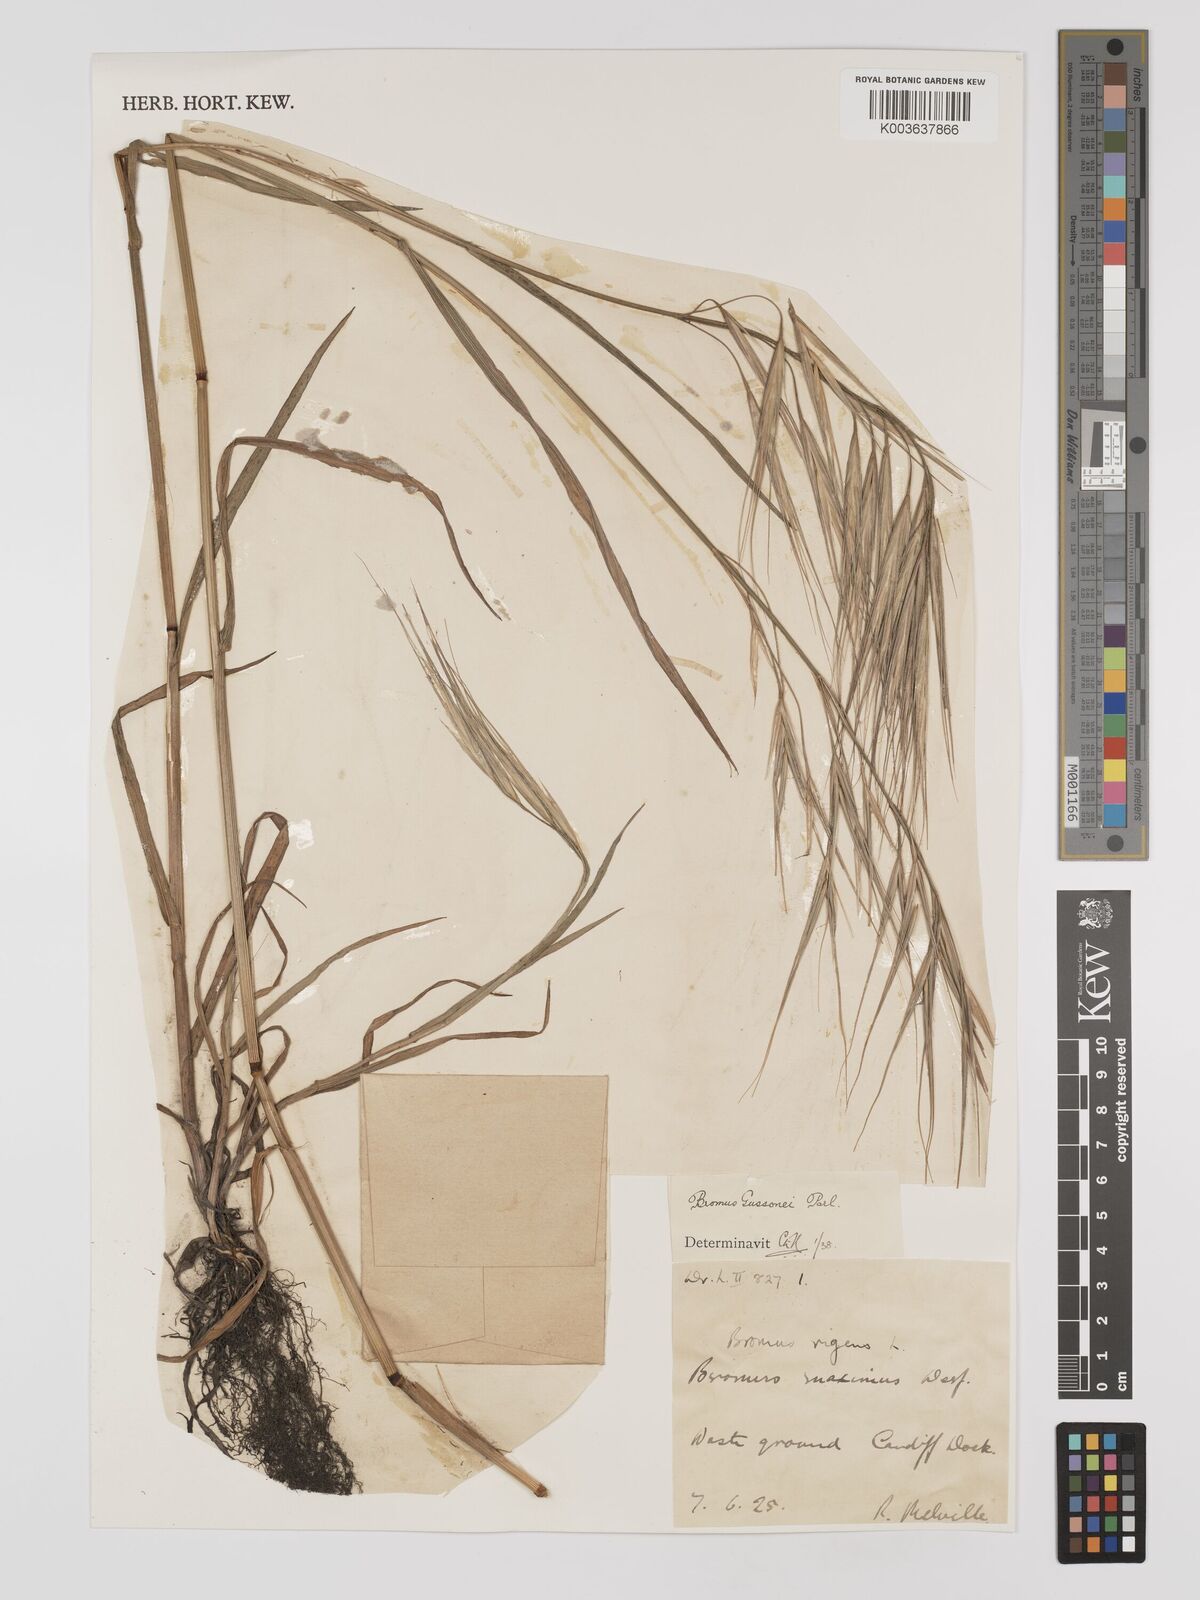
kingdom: Plantae
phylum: Tracheophyta
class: Liliopsida
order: Poales
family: Poaceae
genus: Bromus
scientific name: Bromus
